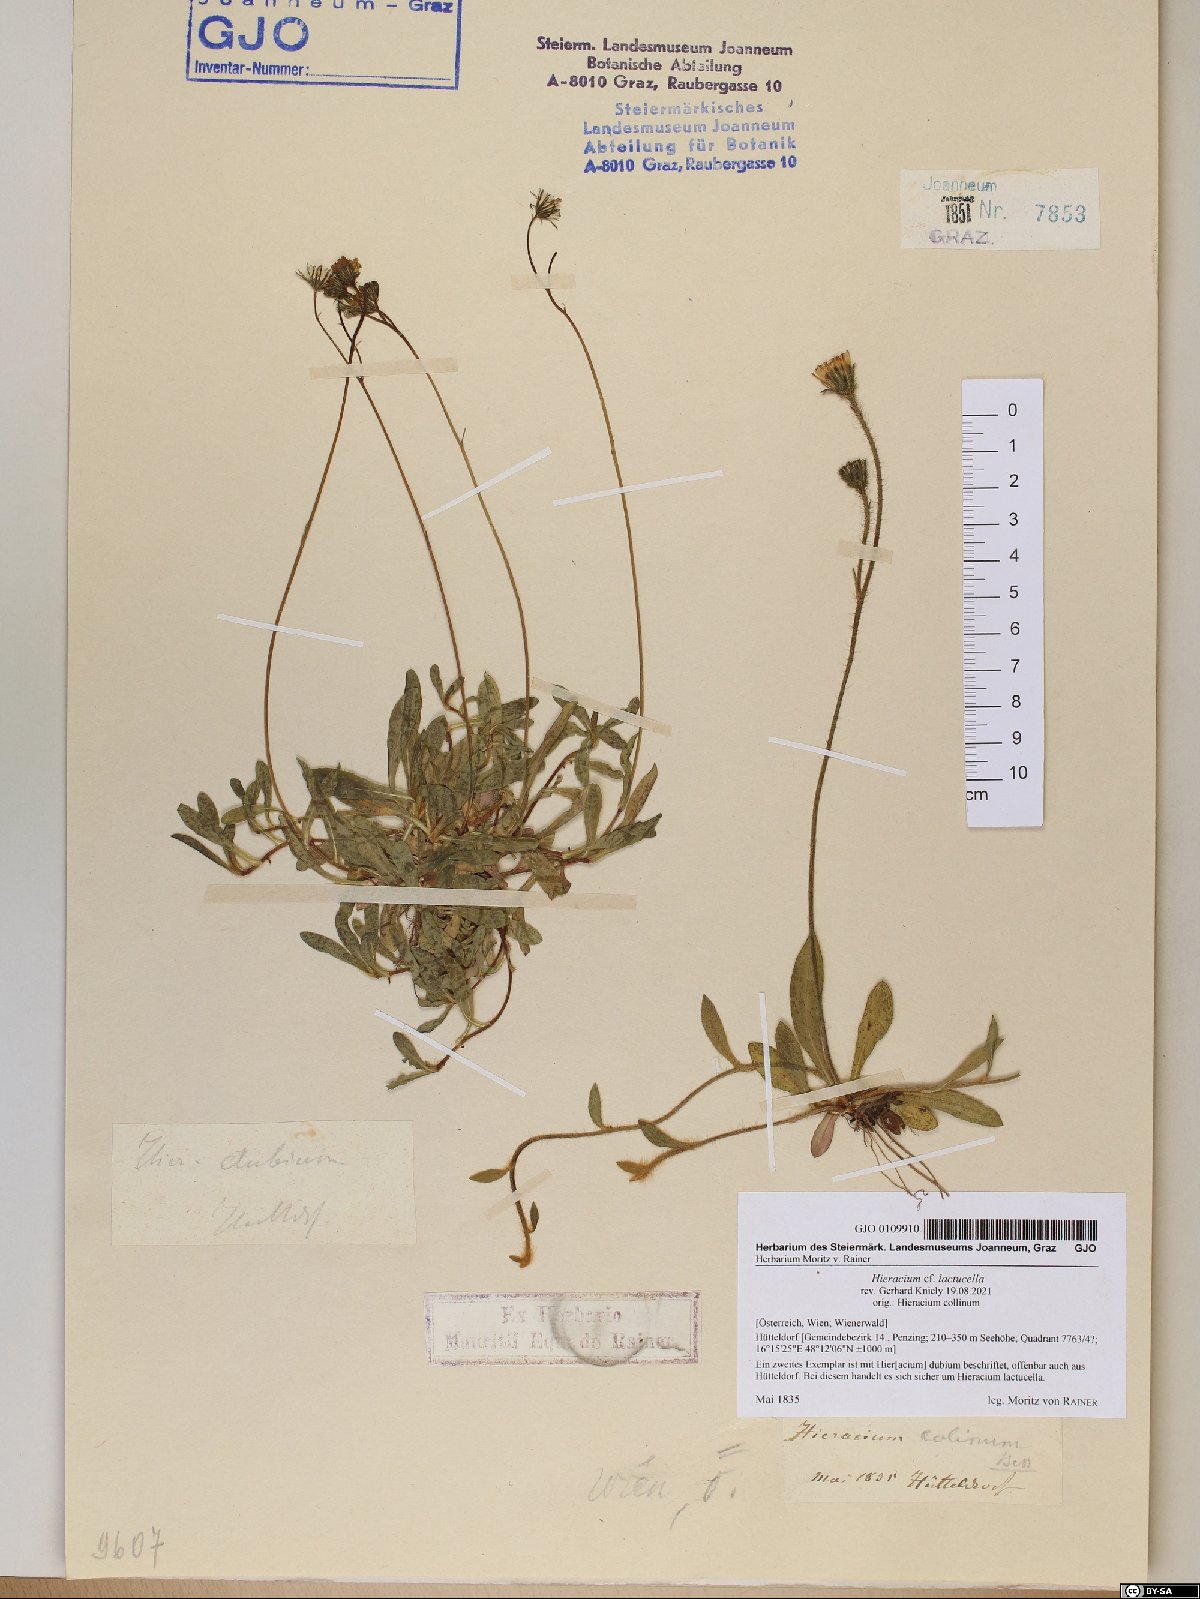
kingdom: Plantae
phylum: Tracheophyta
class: Magnoliopsida
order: Asterales
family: Asteraceae
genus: Pilosella
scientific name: Pilosella lactucella
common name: Glaucous fox-and-cubs
